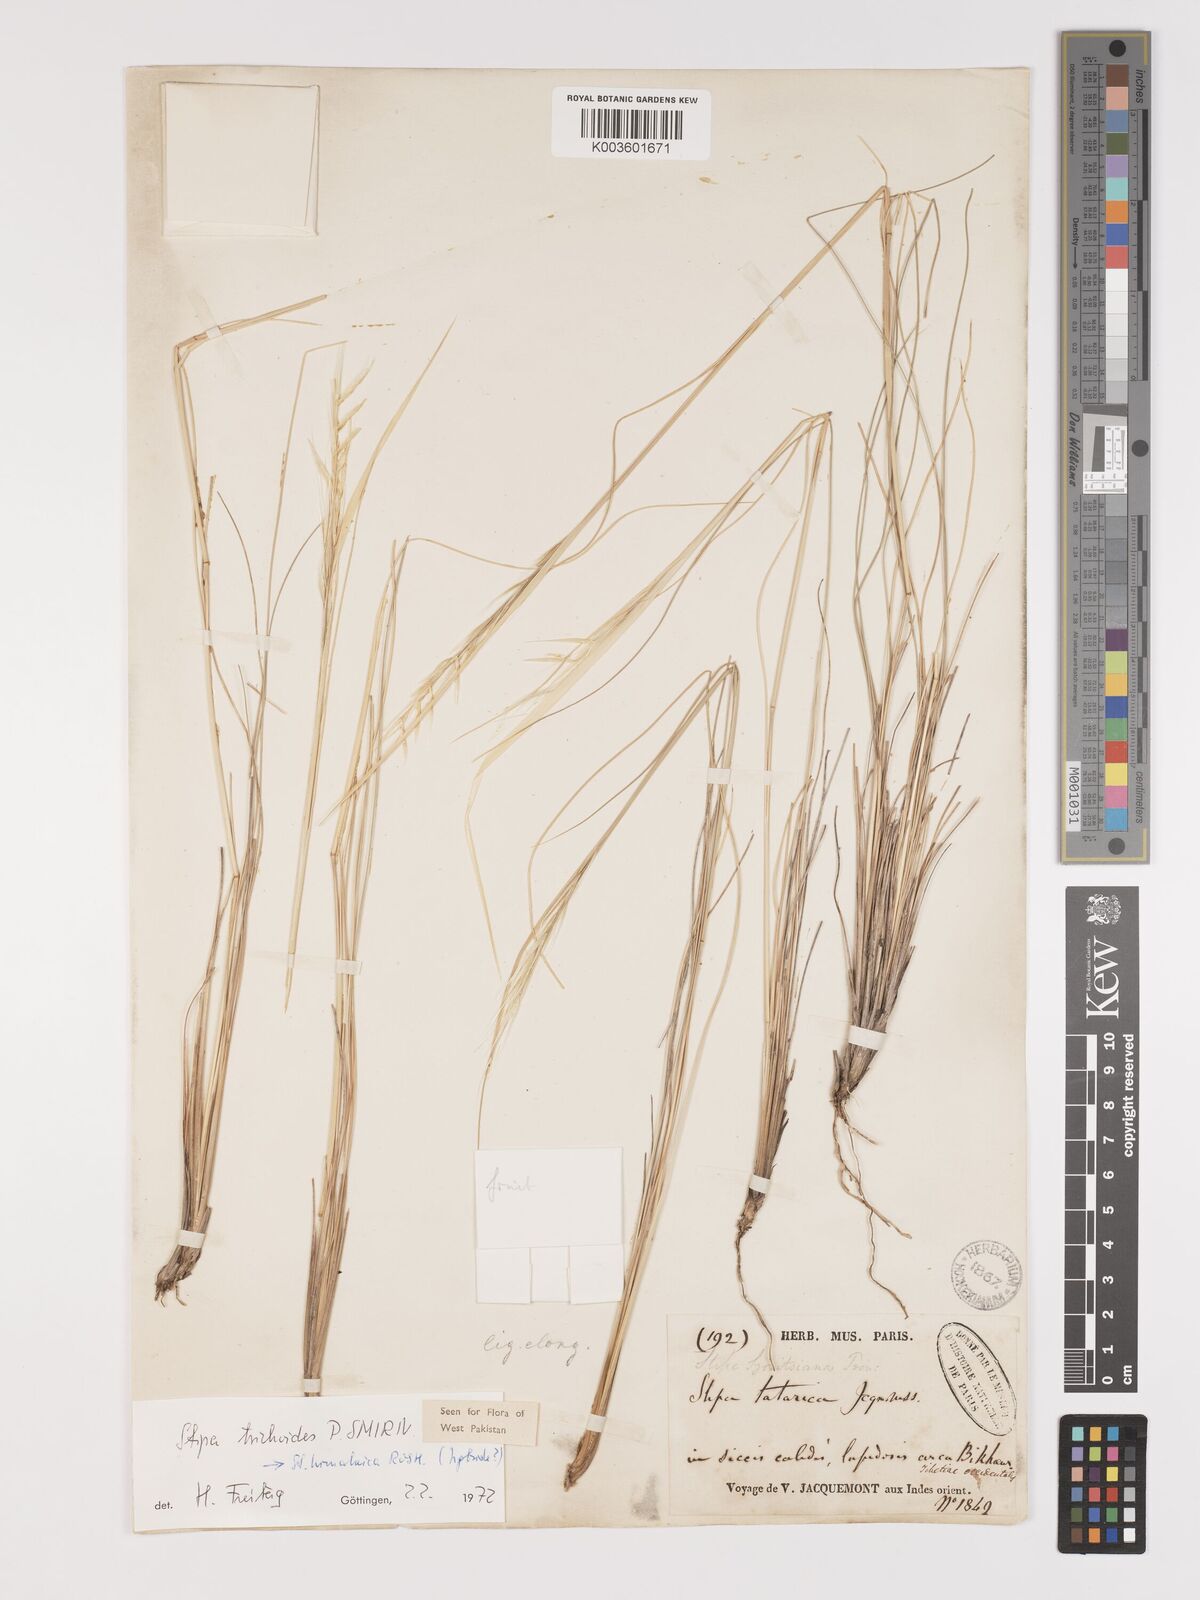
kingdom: Plantae
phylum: Tracheophyta
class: Liliopsida
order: Poales
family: Poaceae
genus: Stipa
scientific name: Stipa turkestanica
